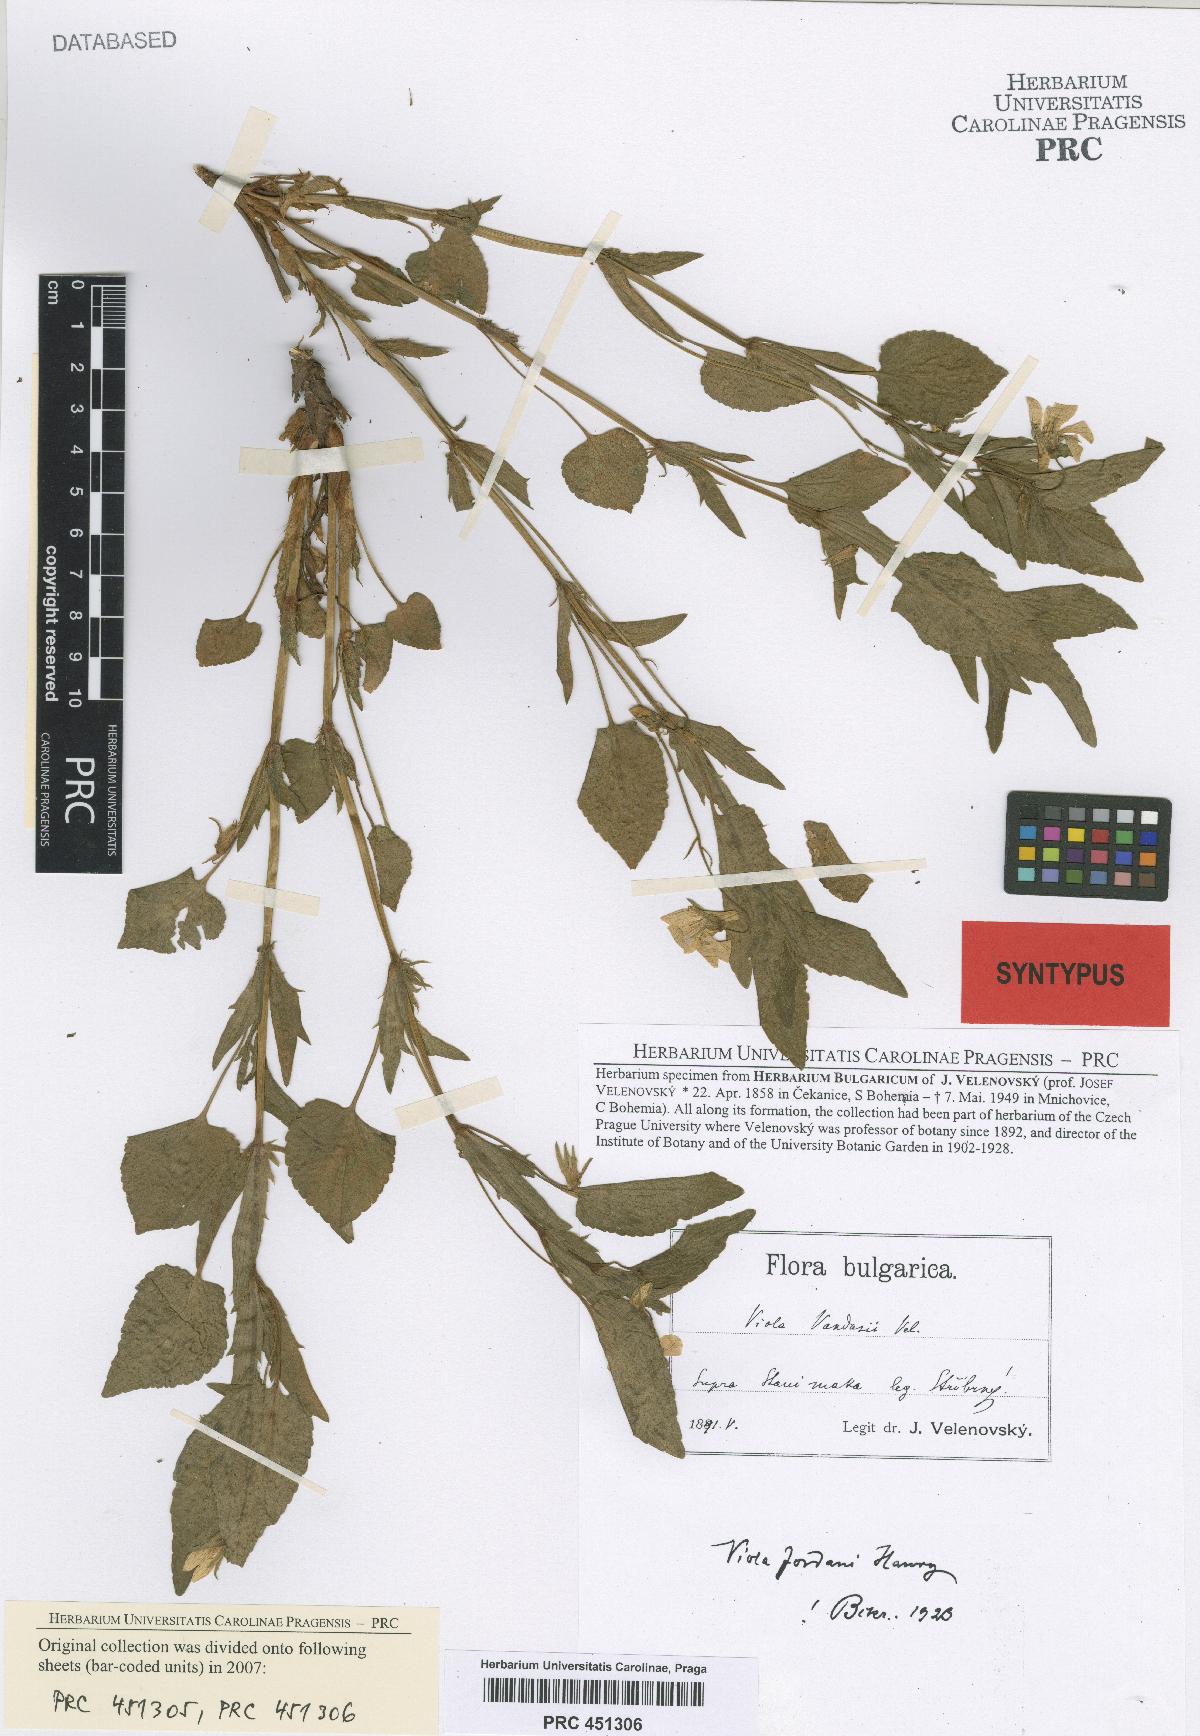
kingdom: Plantae
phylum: Tracheophyta
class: Magnoliopsida
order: Malpighiales
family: Violaceae
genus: Viola
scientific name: Viola jordanii
